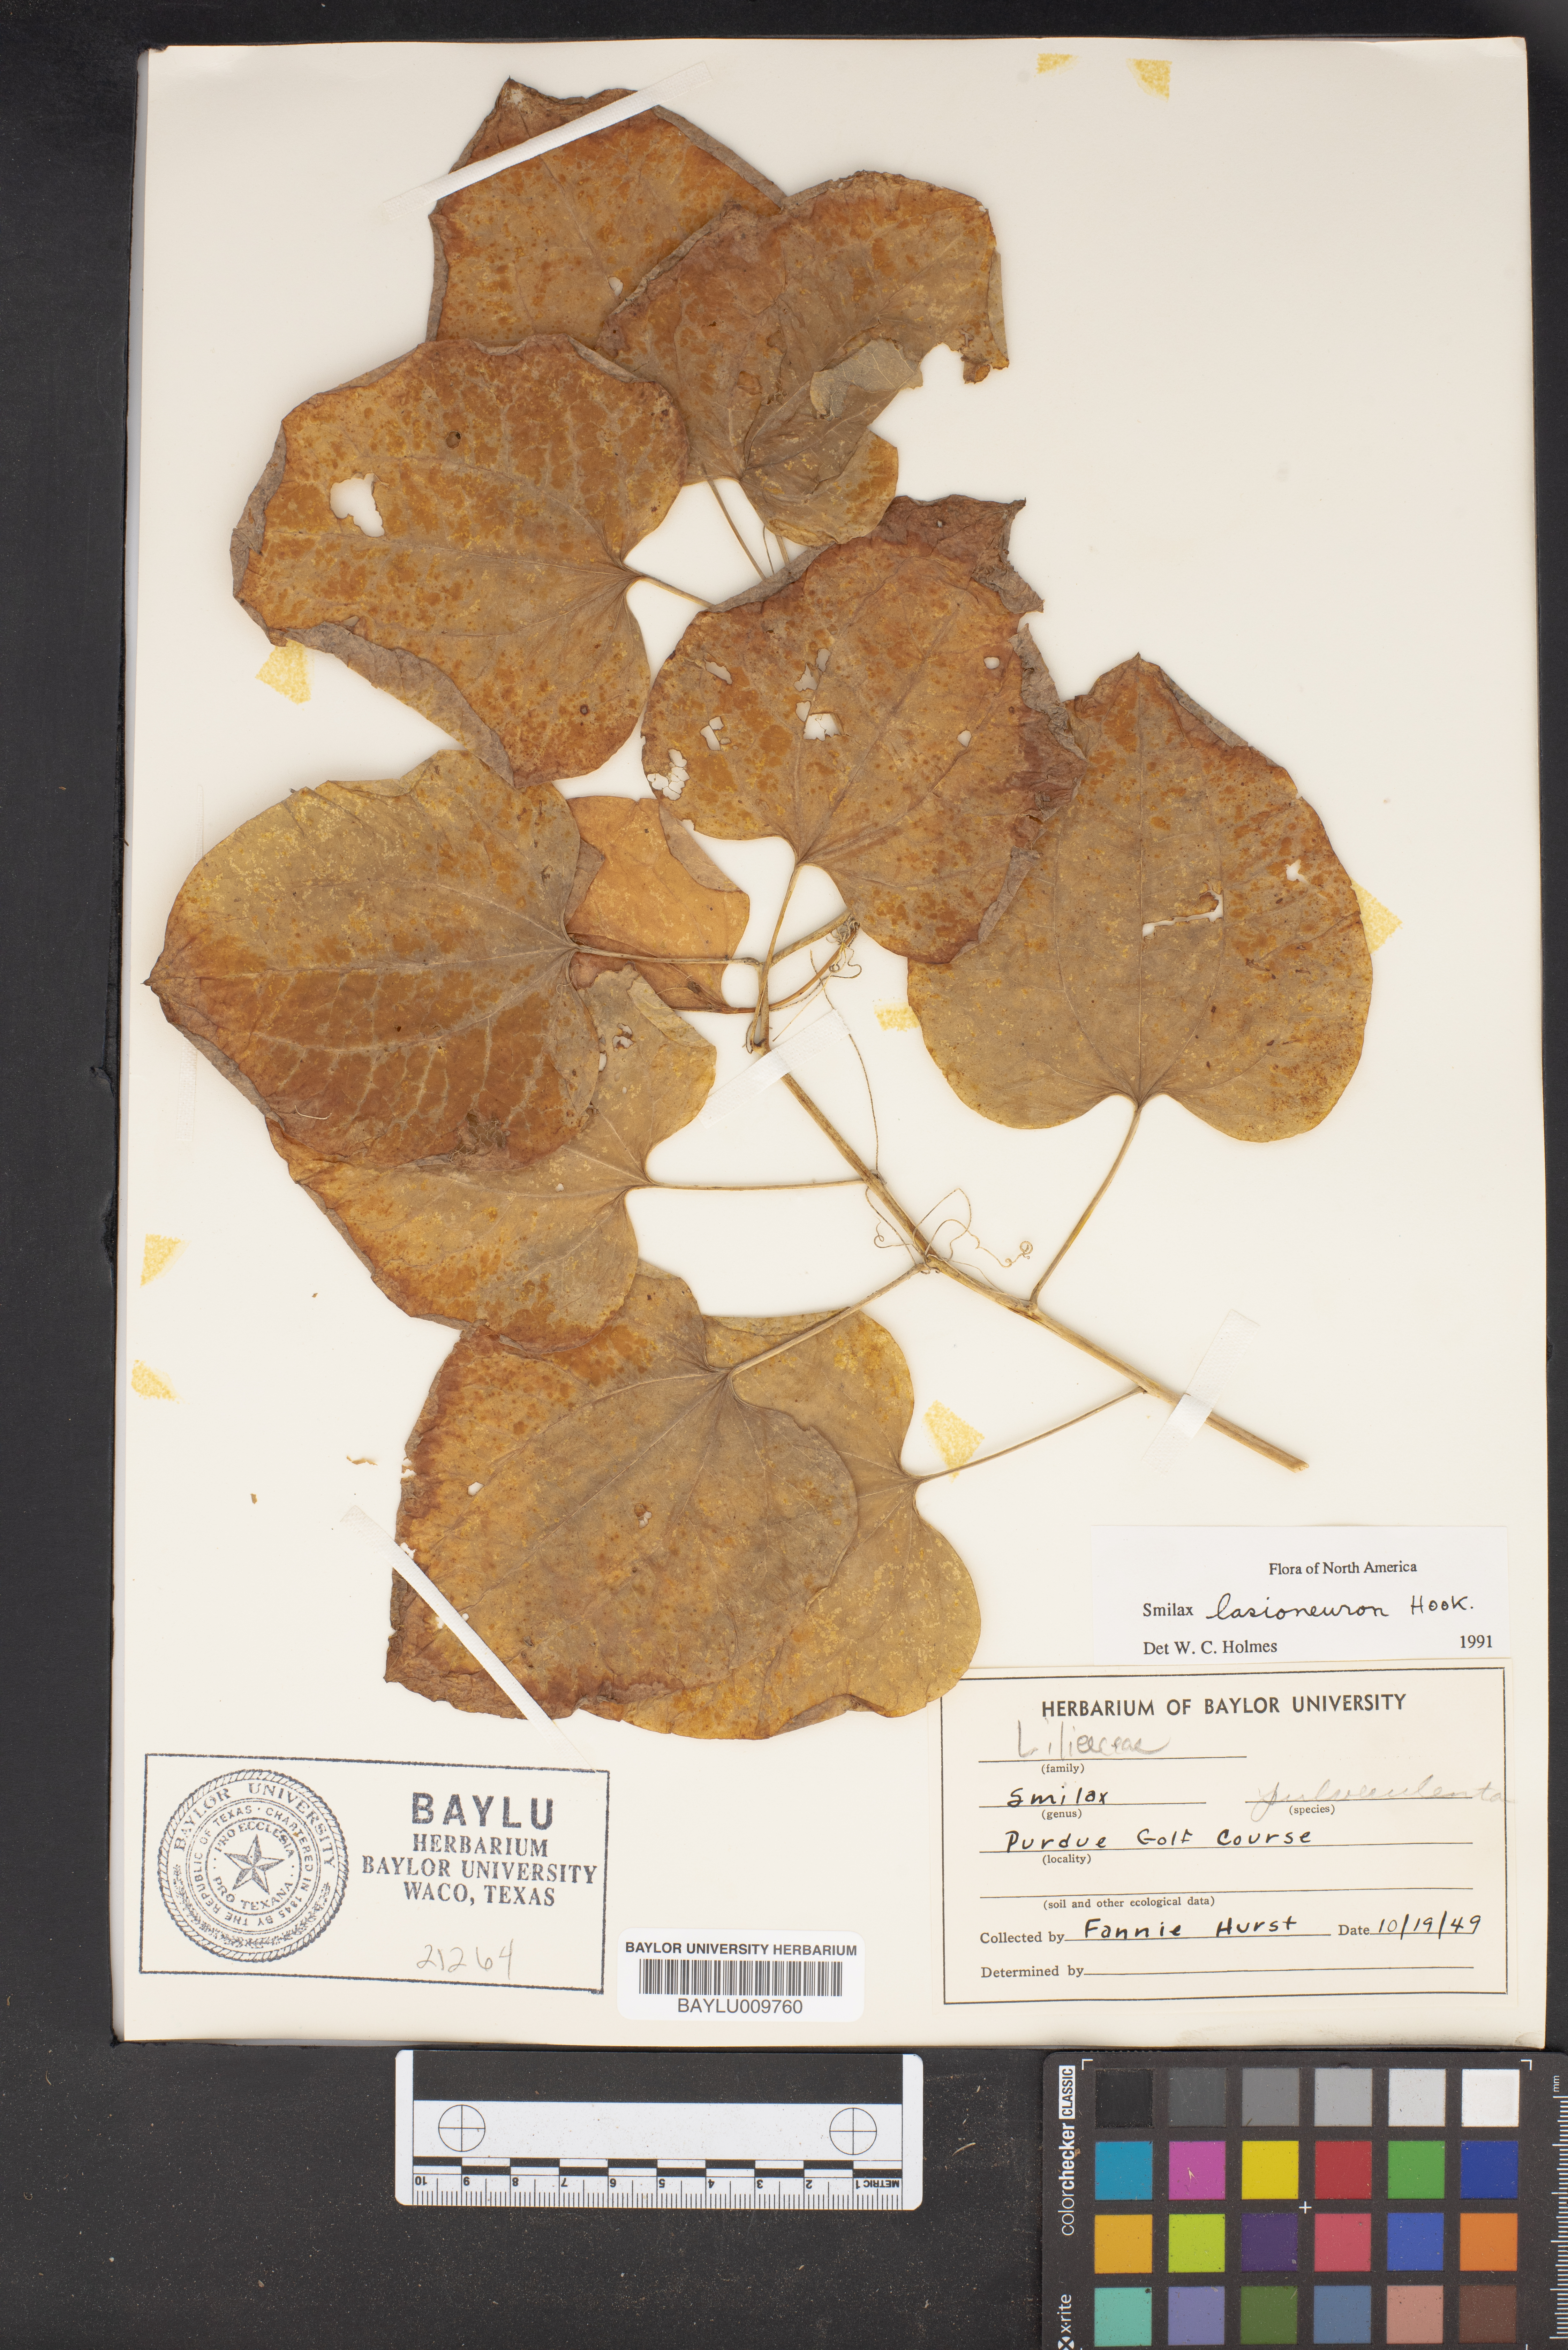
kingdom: Plantae
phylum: Tracheophyta
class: Liliopsida
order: Liliales
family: Smilacaceae
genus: Smilax
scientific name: Smilax pulverulenta
